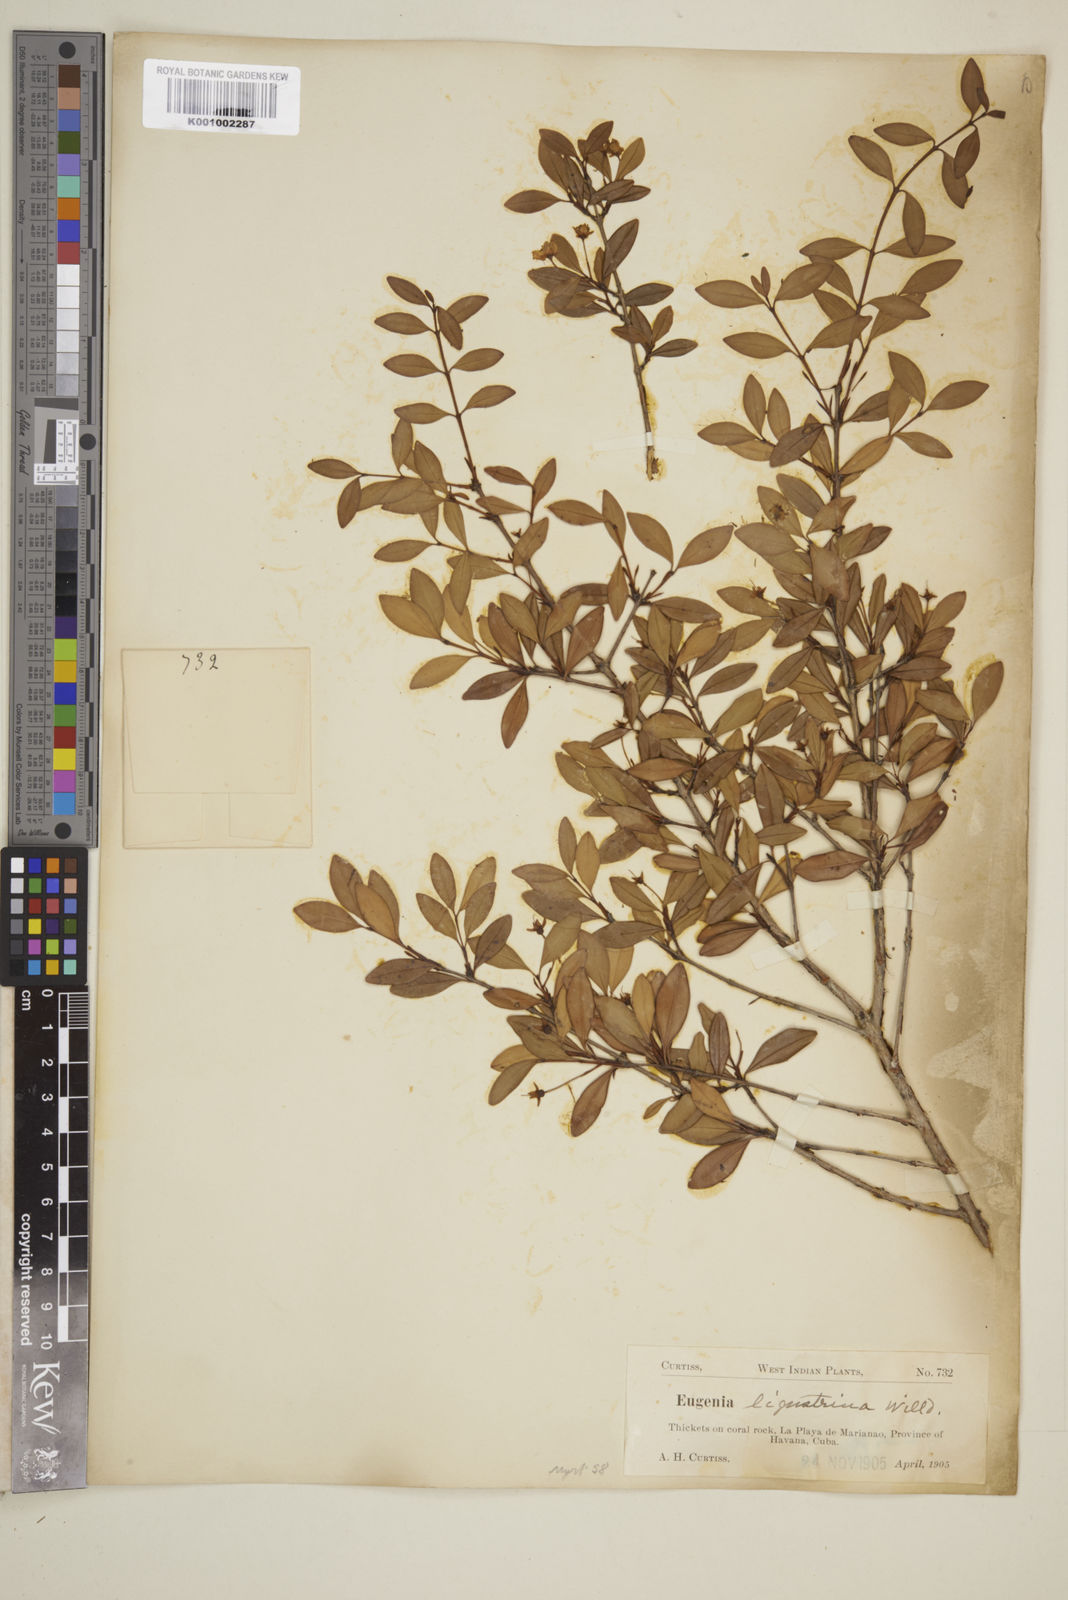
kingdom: Plantae
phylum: Tracheophyta
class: Magnoliopsida
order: Myrtales
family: Myrtaceae
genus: Eugenia
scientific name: Eugenia ligustrina
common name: Privet stopper
